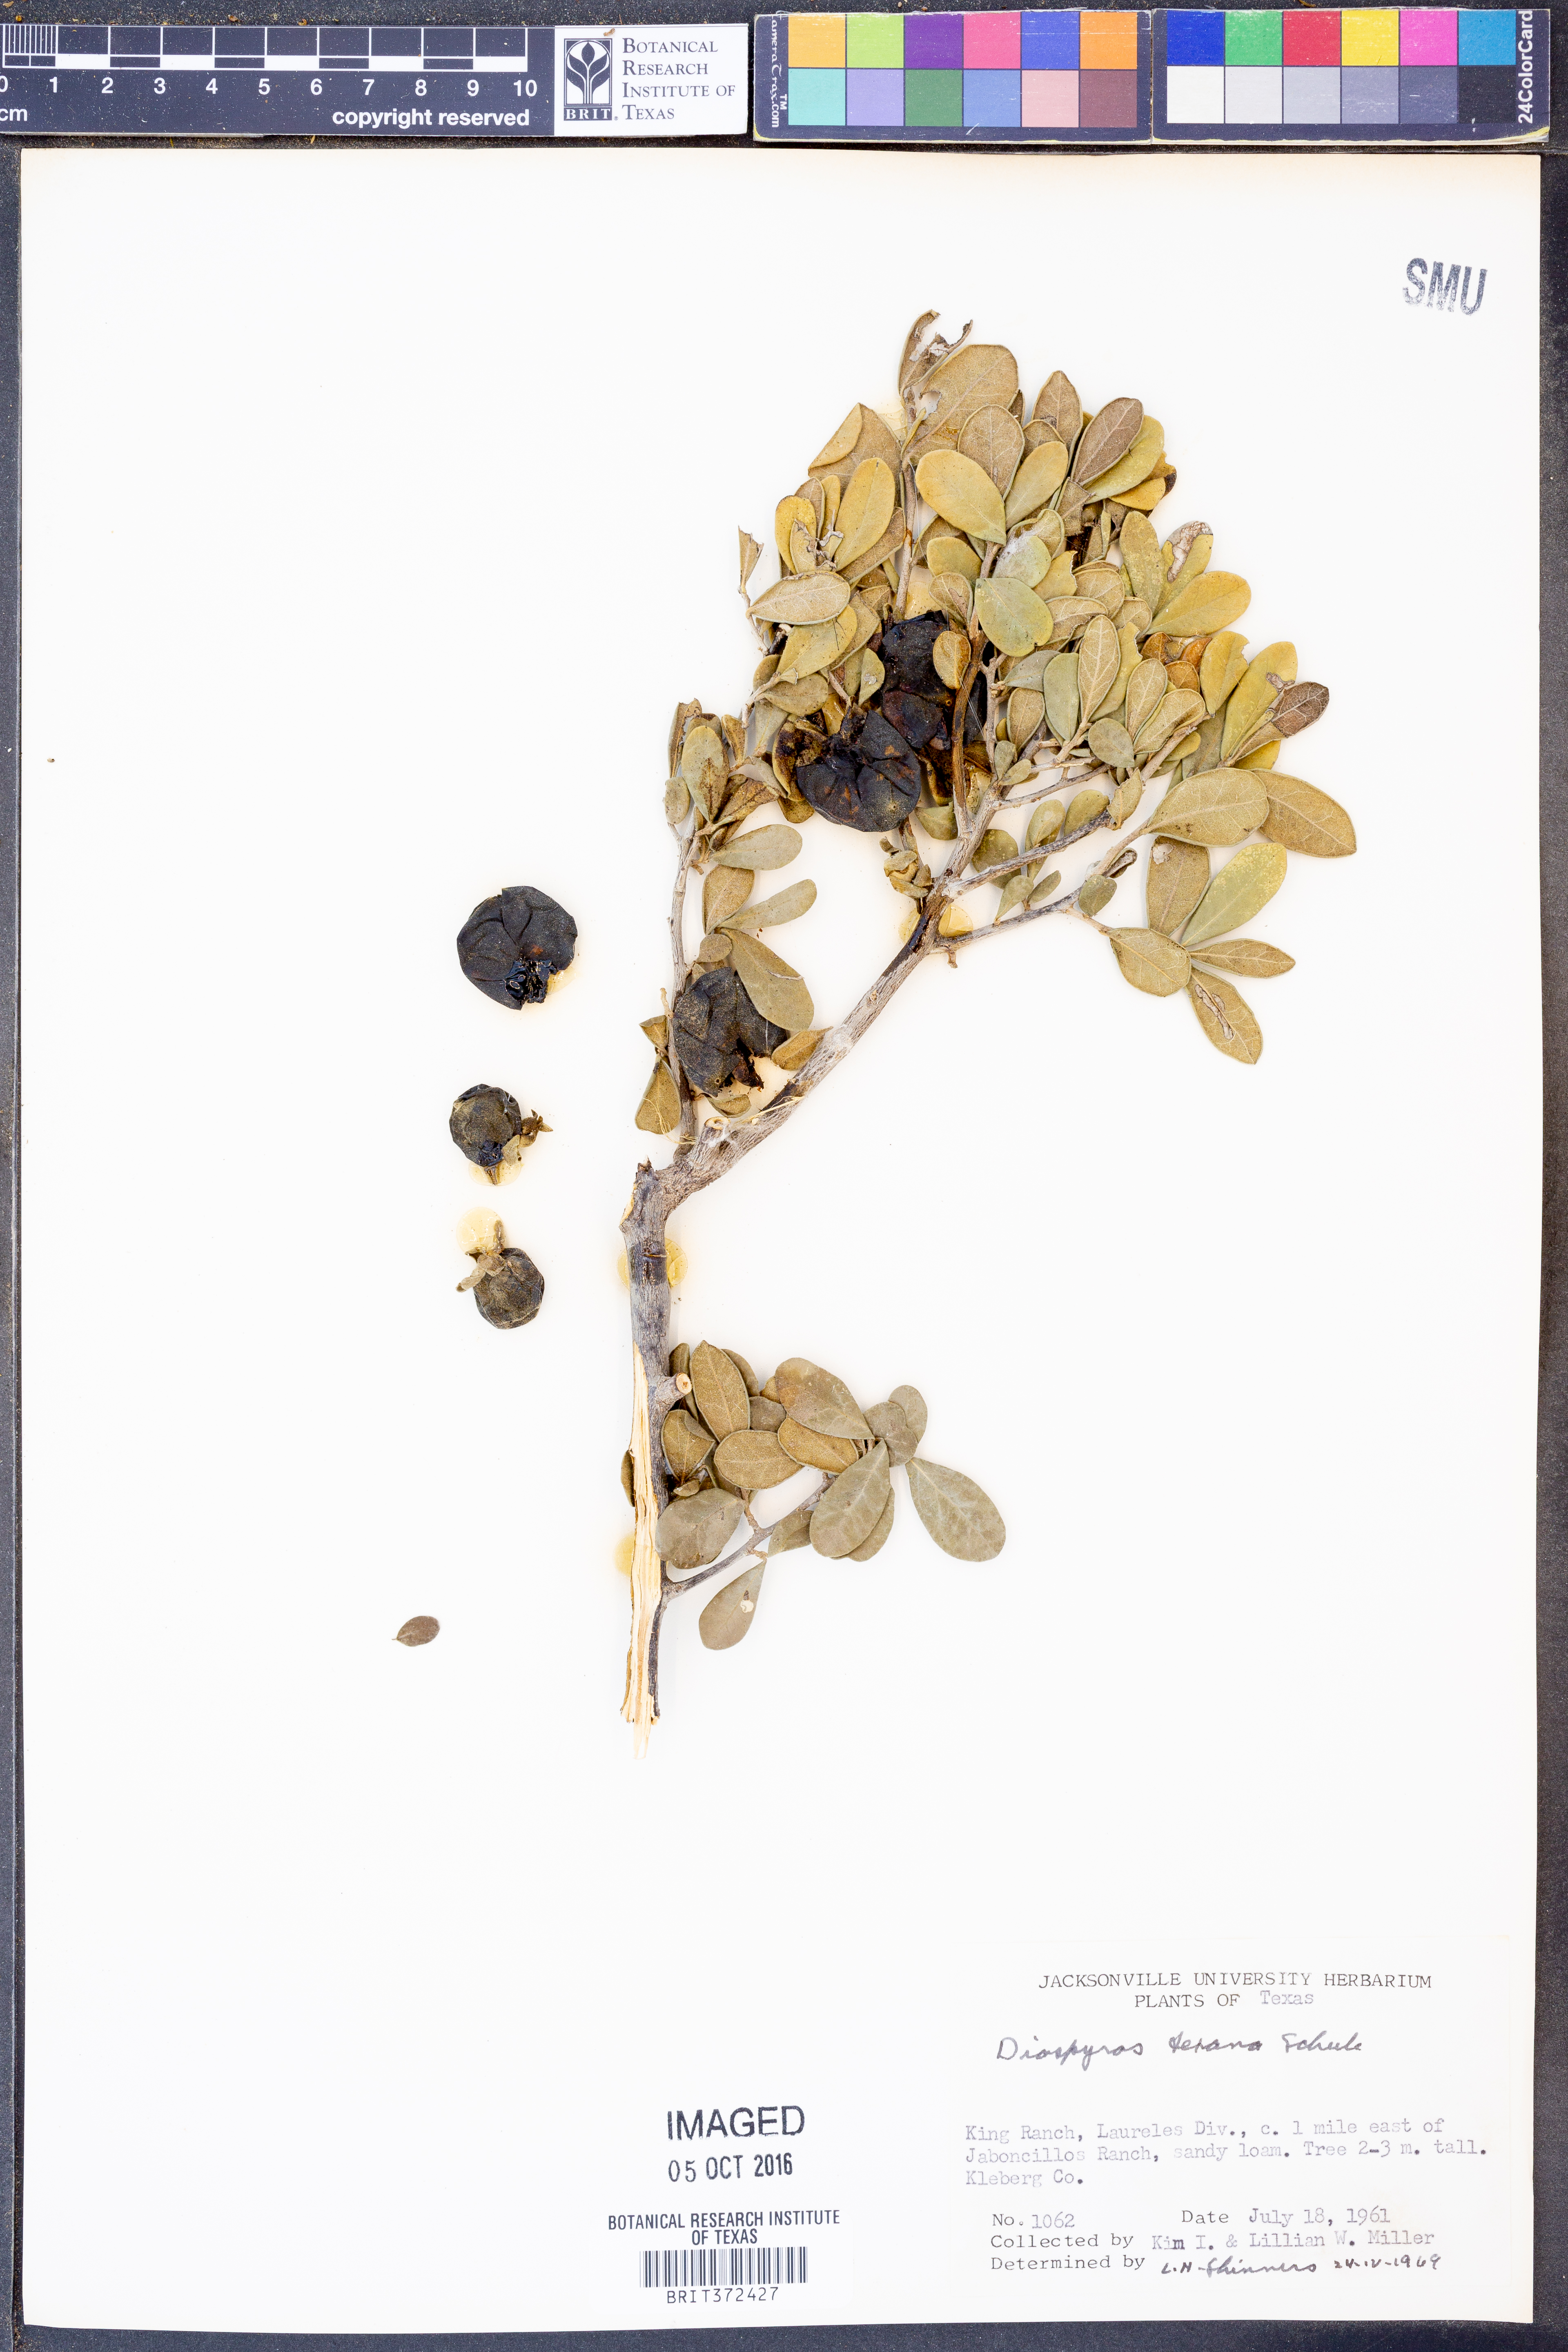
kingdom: Plantae
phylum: Tracheophyta
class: Magnoliopsida
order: Ericales
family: Ebenaceae
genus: Diospyros
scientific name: Diospyros texana
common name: Texas persimmon
